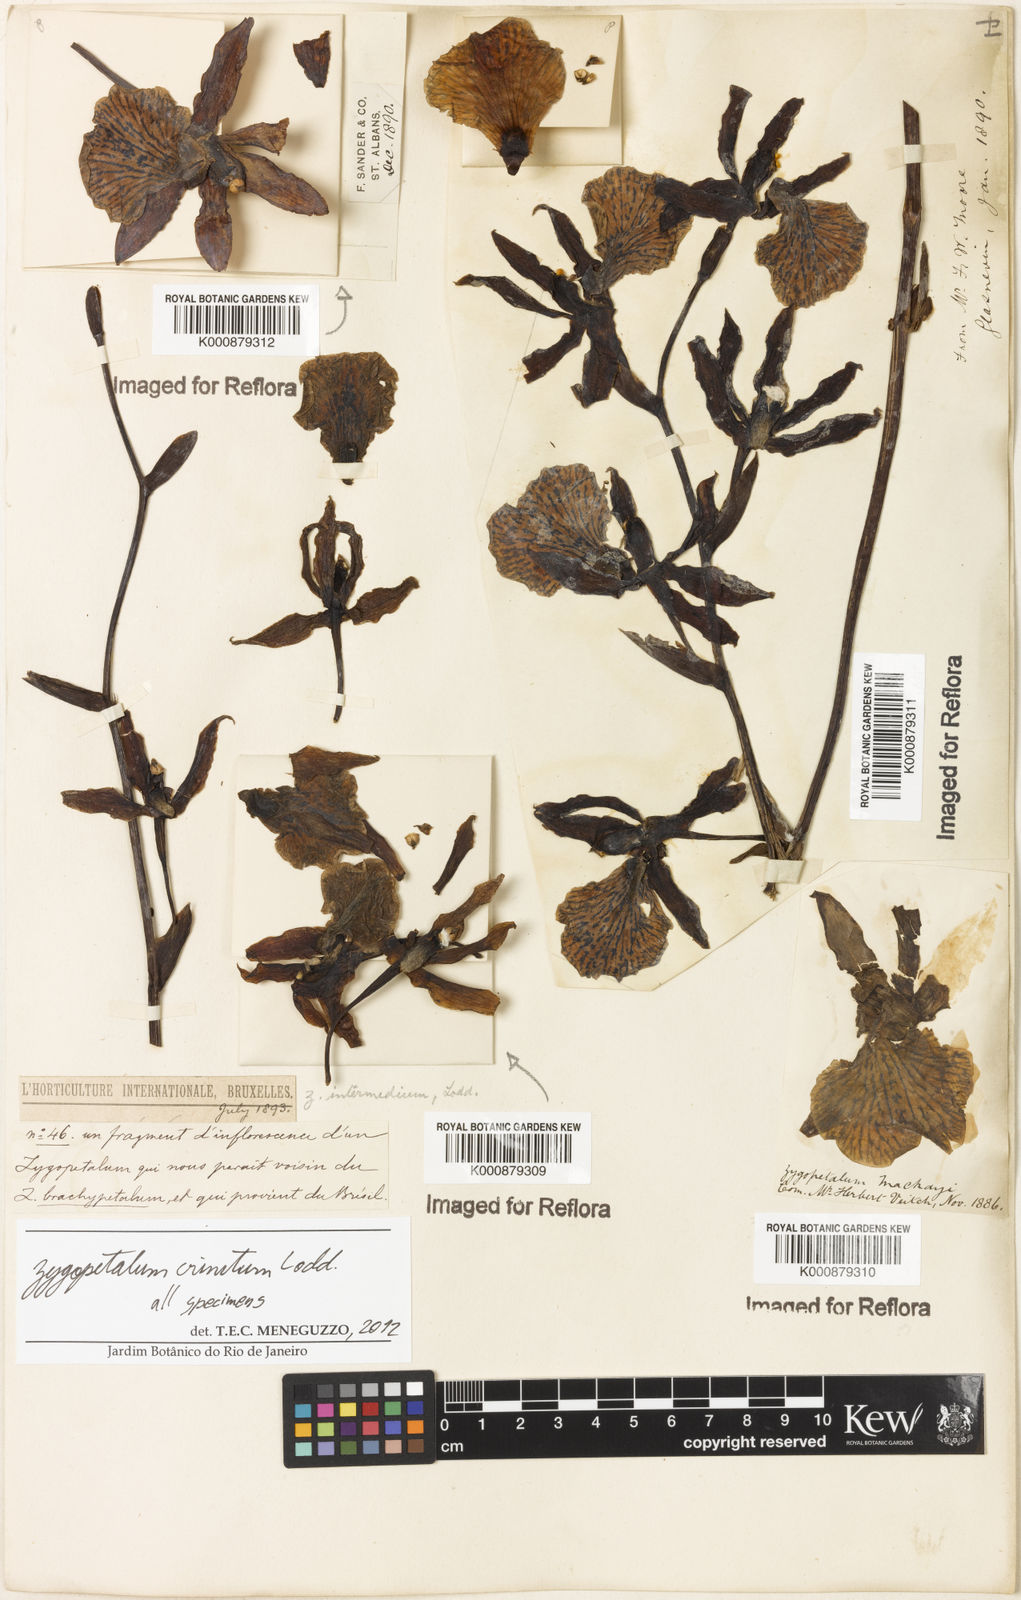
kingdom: Plantae
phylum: Tracheophyta
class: Liliopsida
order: Asparagales
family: Orchidaceae
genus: Zygopetalum
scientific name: Zygopetalum crinitum
